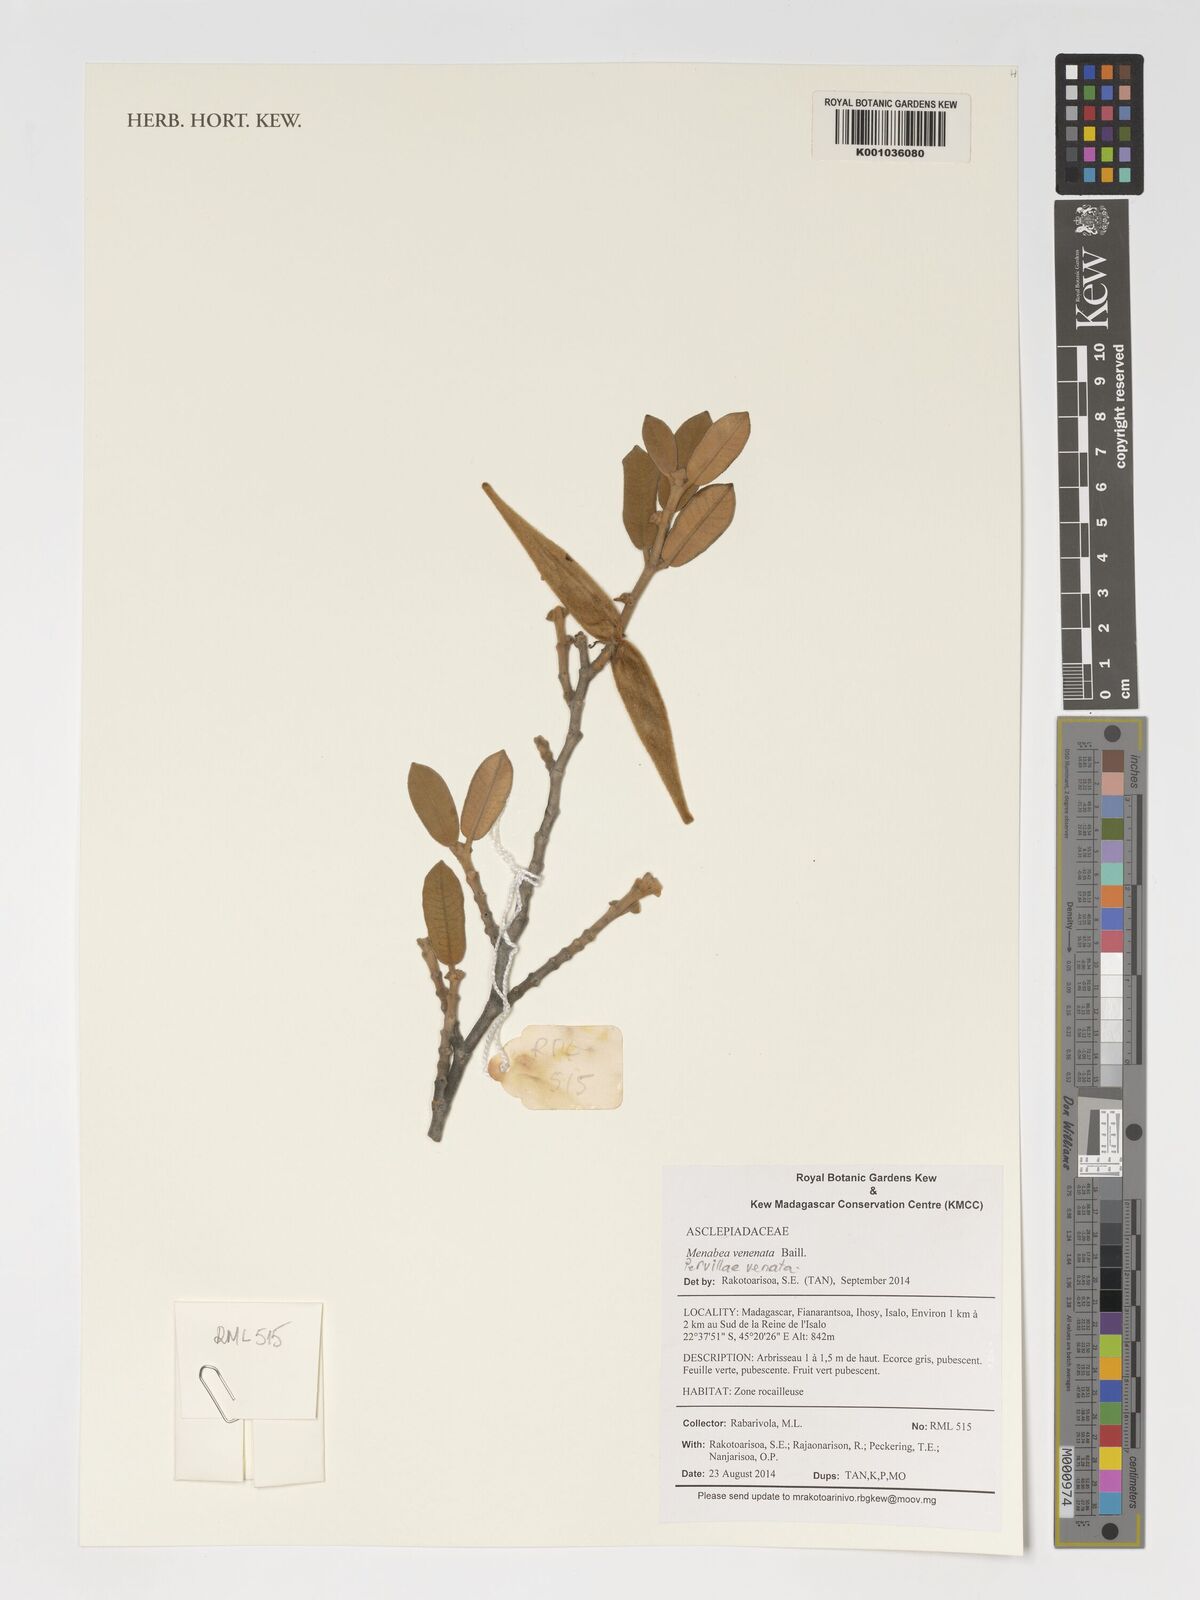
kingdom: Plantae
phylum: Tracheophyta
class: Magnoliopsida
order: Gentianales
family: Apocynaceae
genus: Pervillaea
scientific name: Pervillaea venenata
